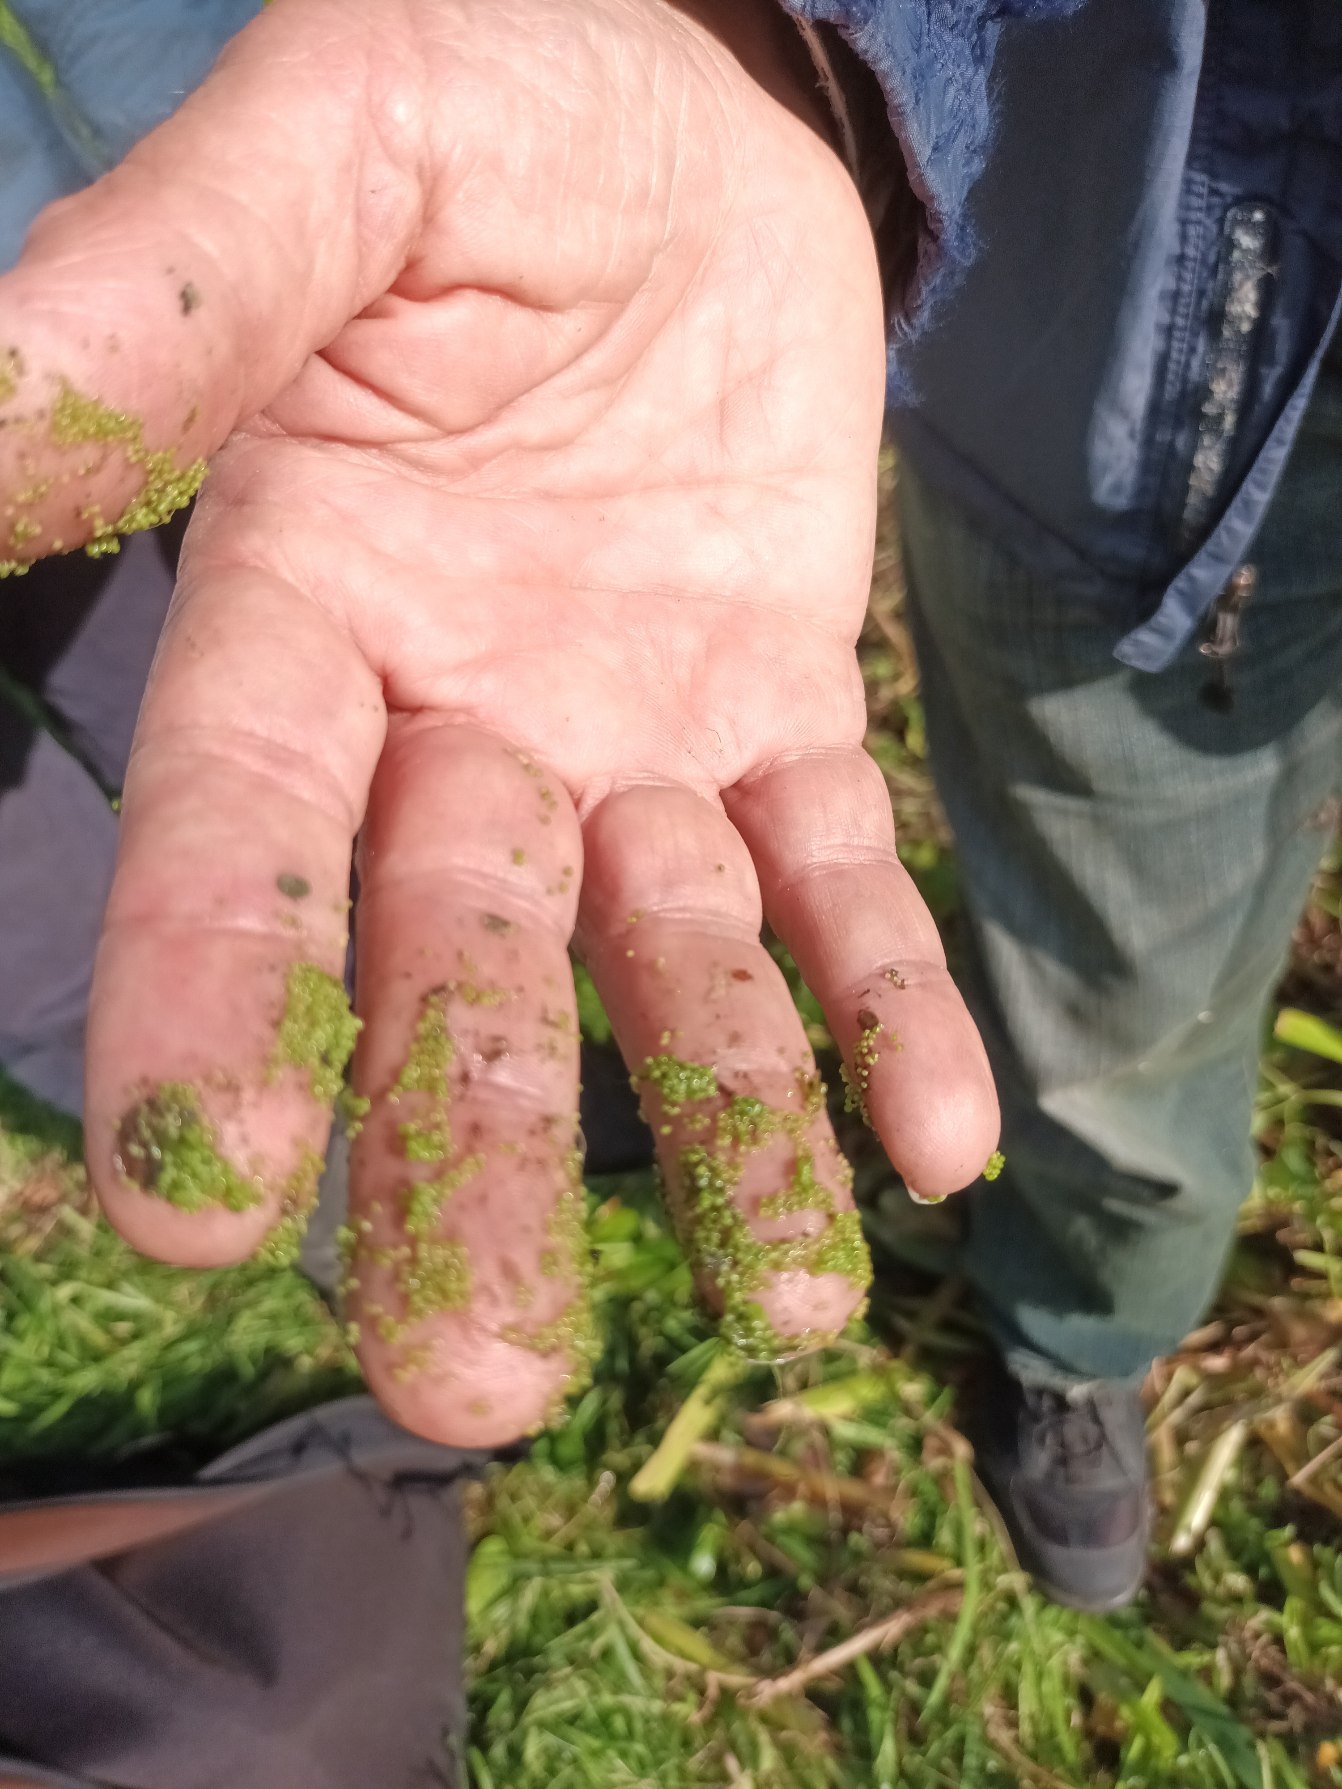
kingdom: Plantae
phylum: Tracheophyta
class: Liliopsida
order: Alismatales
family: Araceae
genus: Wolffia
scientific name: Wolffia columbiana
